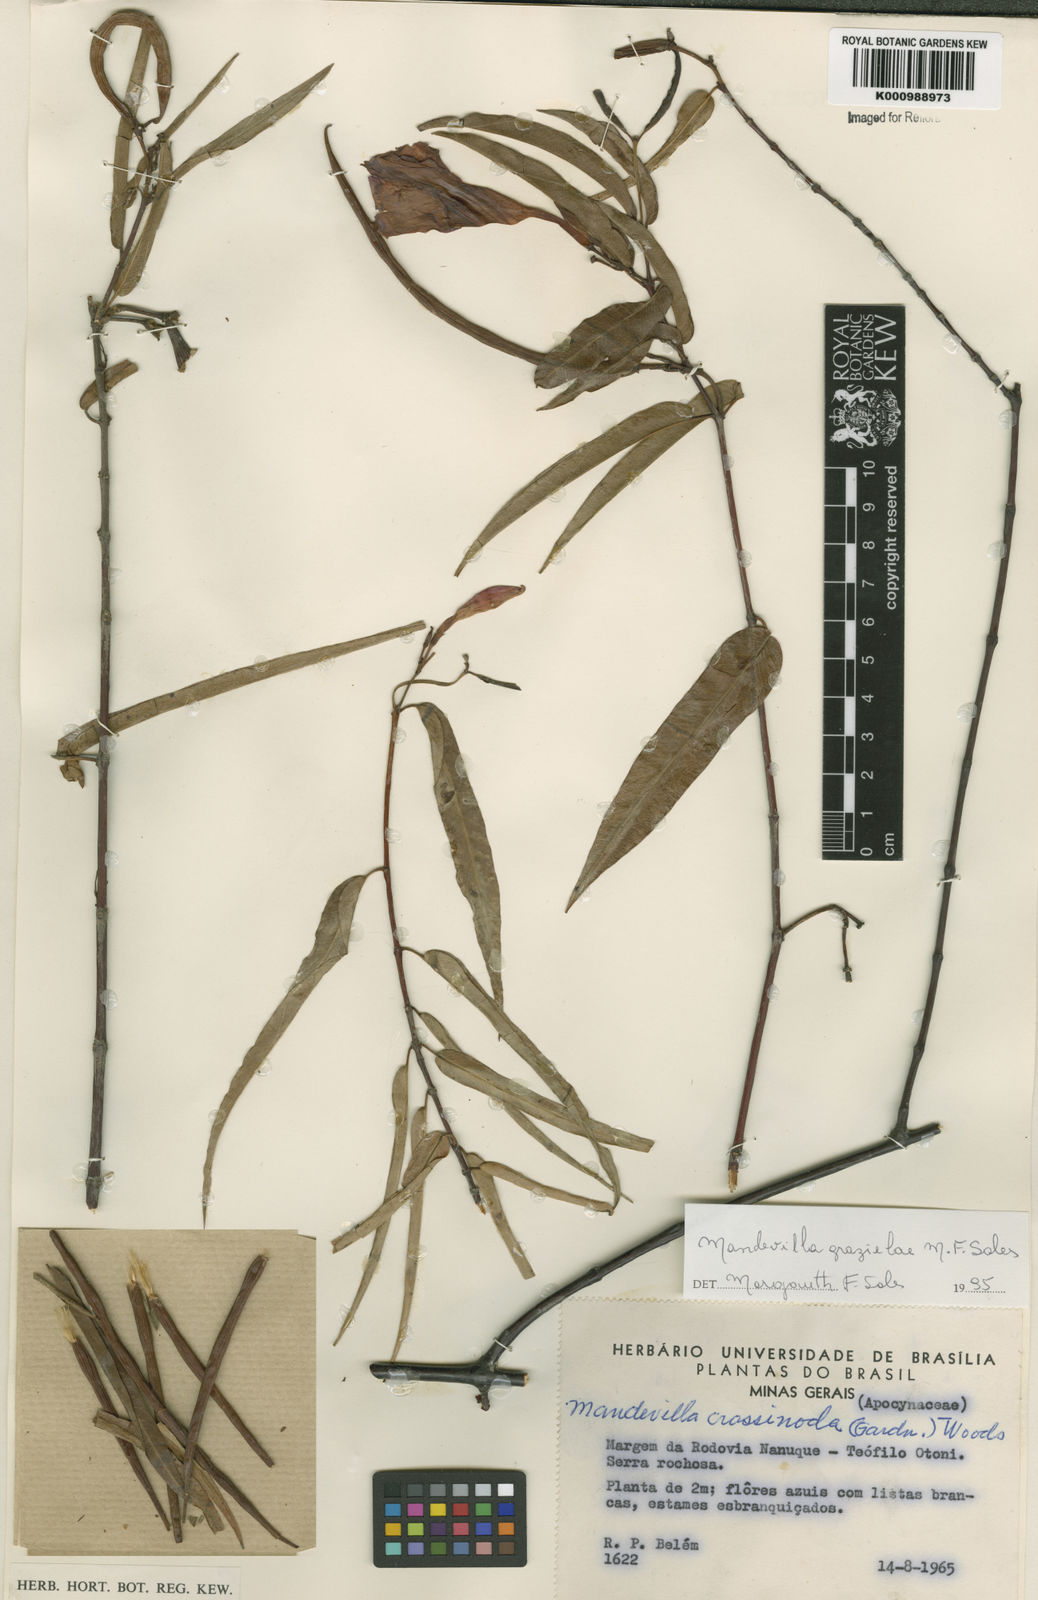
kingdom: Plantae
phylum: Tracheophyta
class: Magnoliopsida
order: Gentianales
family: Apocynaceae
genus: Mandevilla
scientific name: Mandevilla
